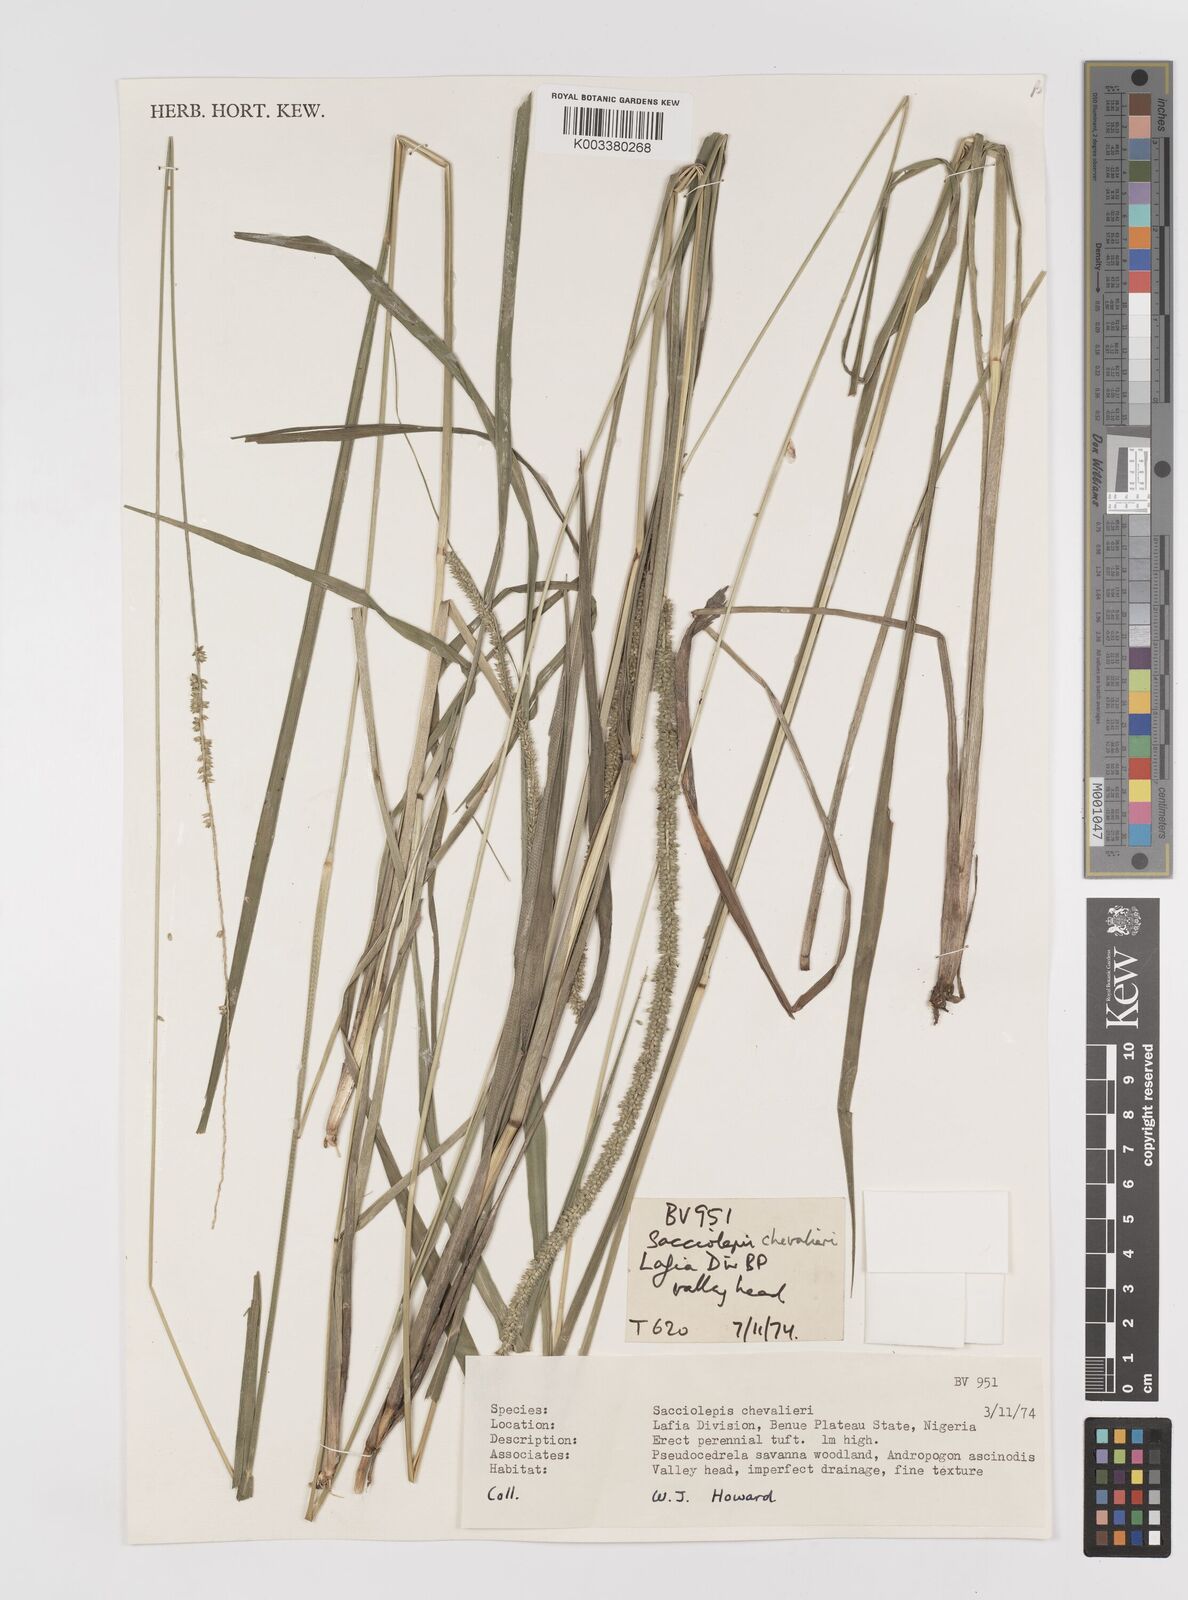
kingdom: Plantae
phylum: Tracheophyta
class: Liliopsida
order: Poales
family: Poaceae
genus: Sacciolepis
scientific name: Sacciolepis typhura
